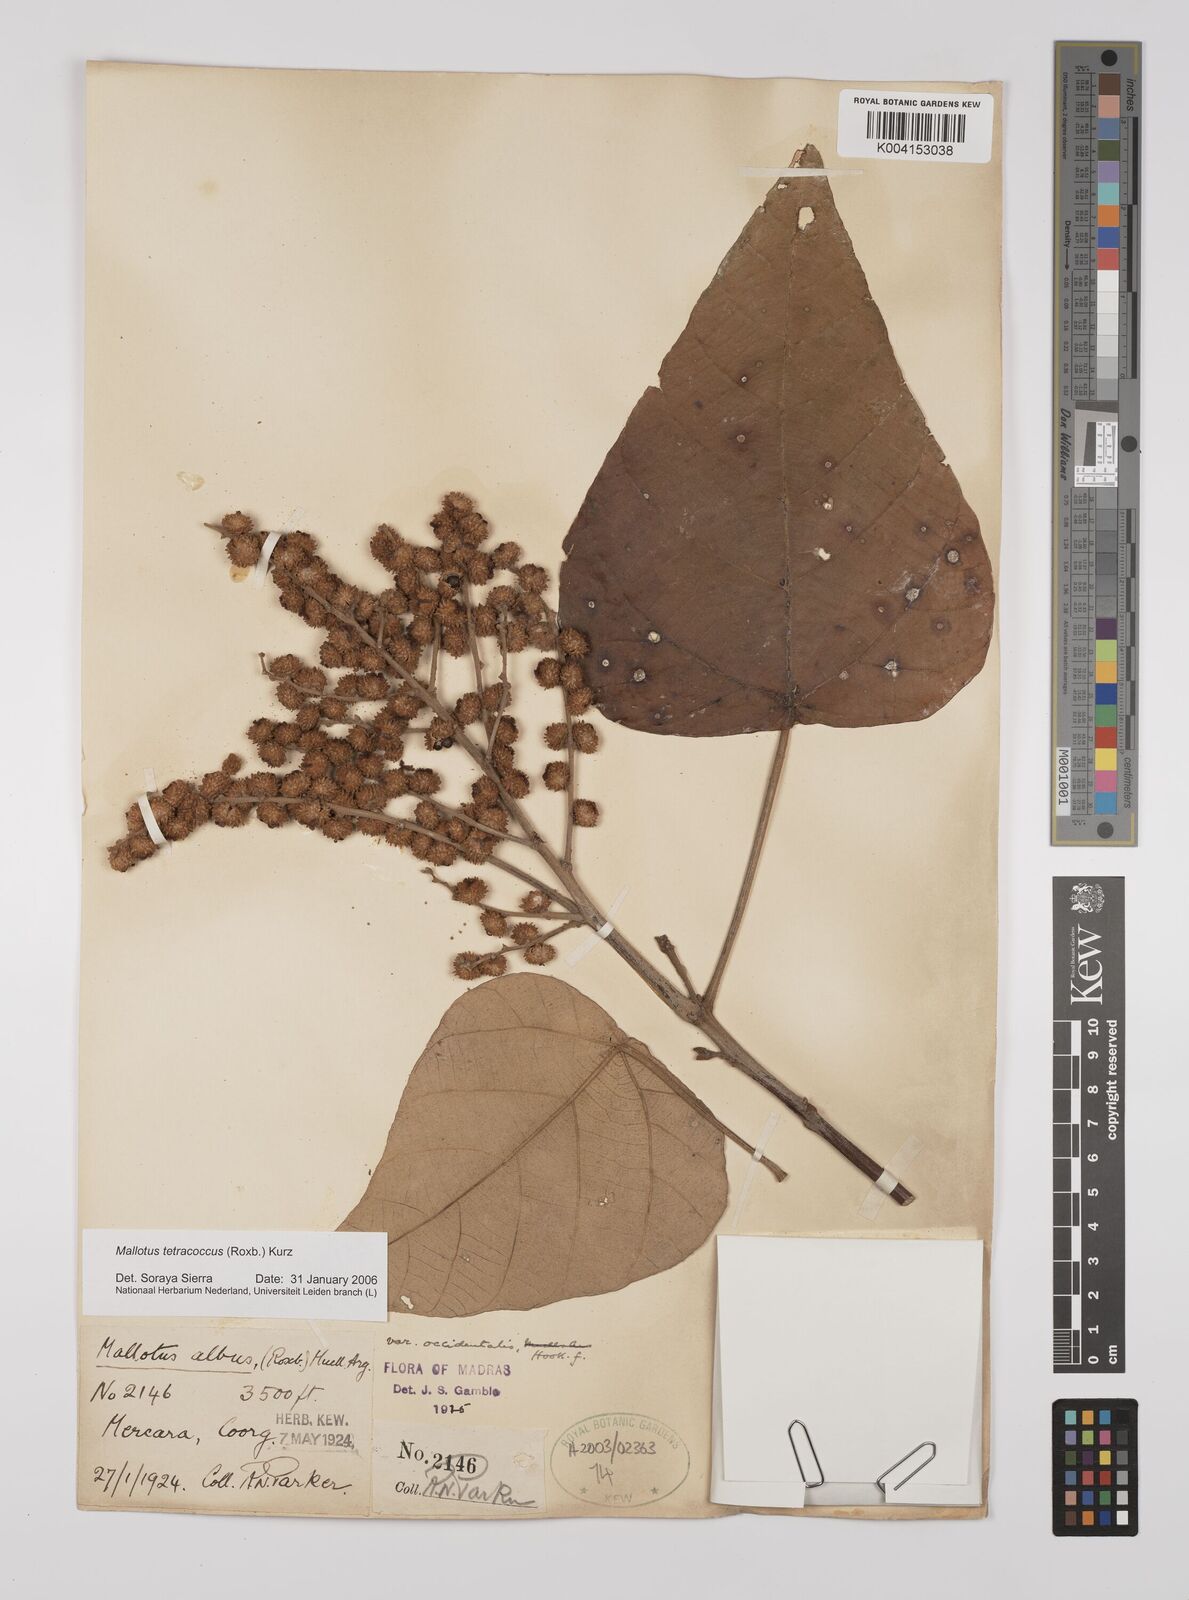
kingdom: Plantae
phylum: Tracheophyta
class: Magnoliopsida
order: Malpighiales
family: Euphorbiaceae
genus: Mallotus
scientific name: Mallotus tetracoccus
